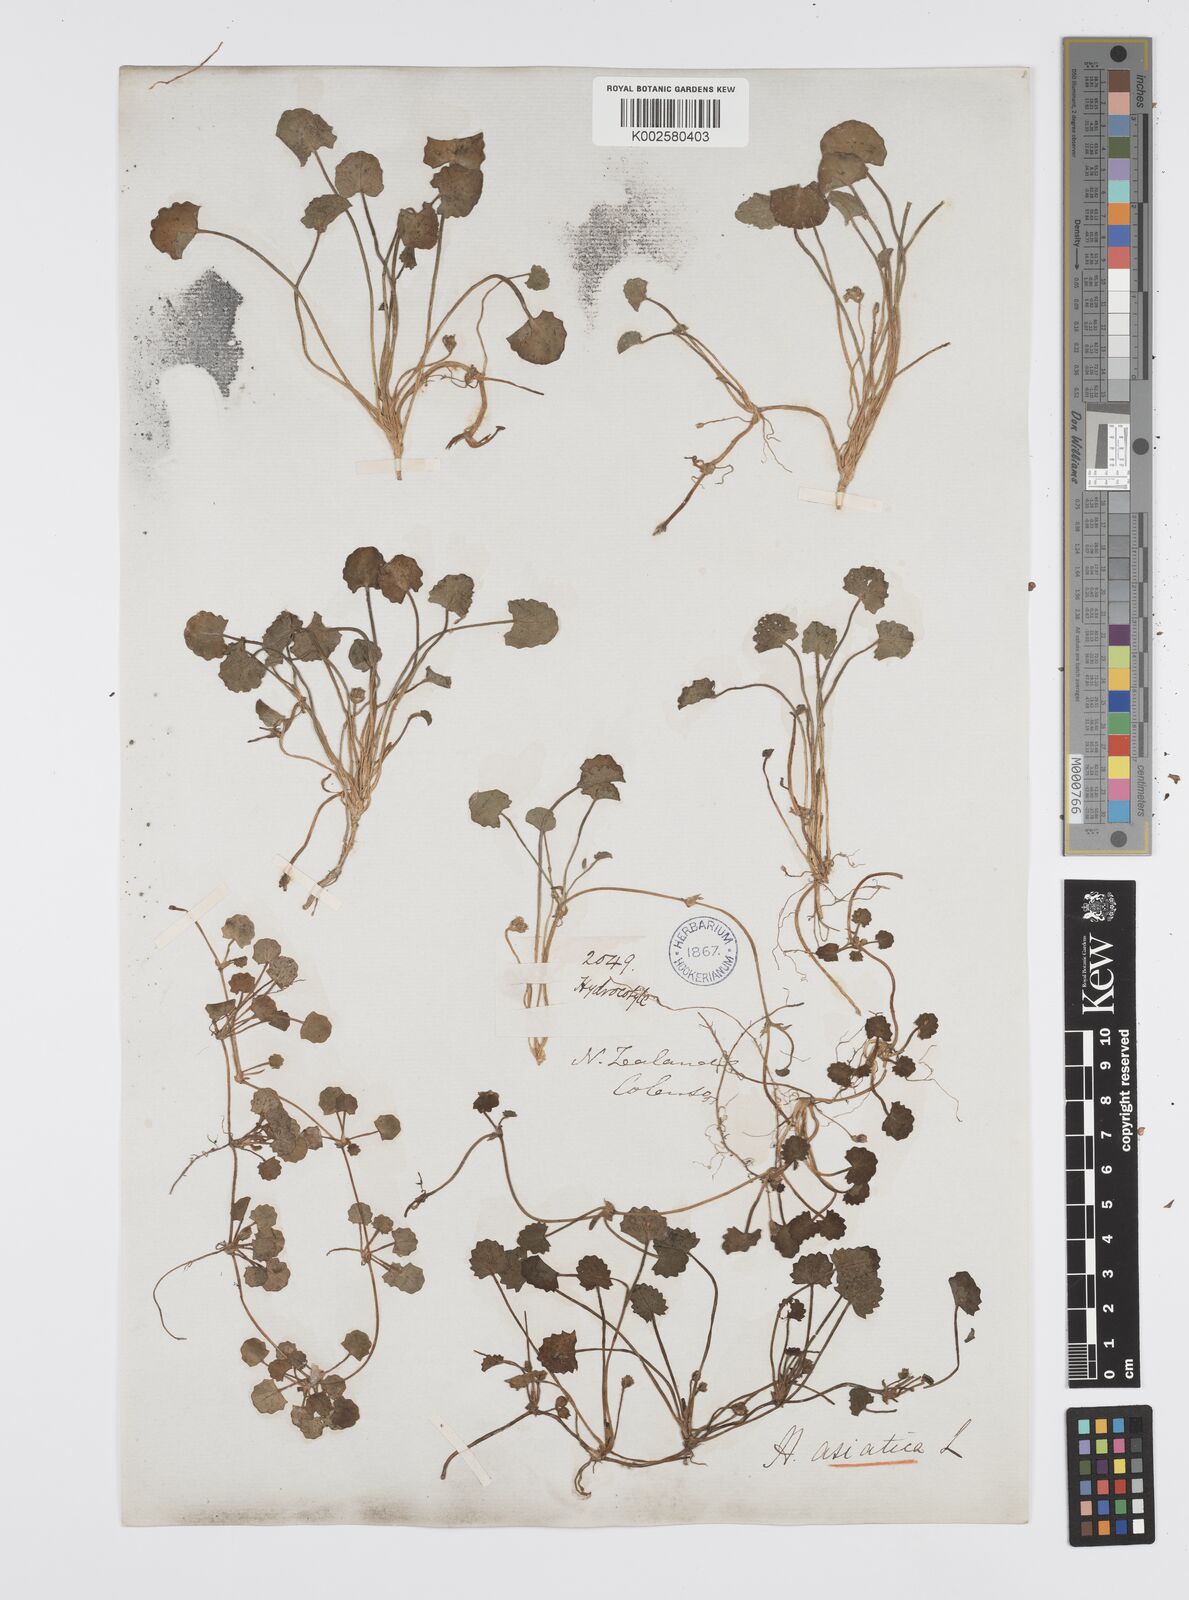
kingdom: Plantae
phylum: Tracheophyta
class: Magnoliopsida
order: Apiales
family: Apiaceae
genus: Centella
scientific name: Centella uniflora
